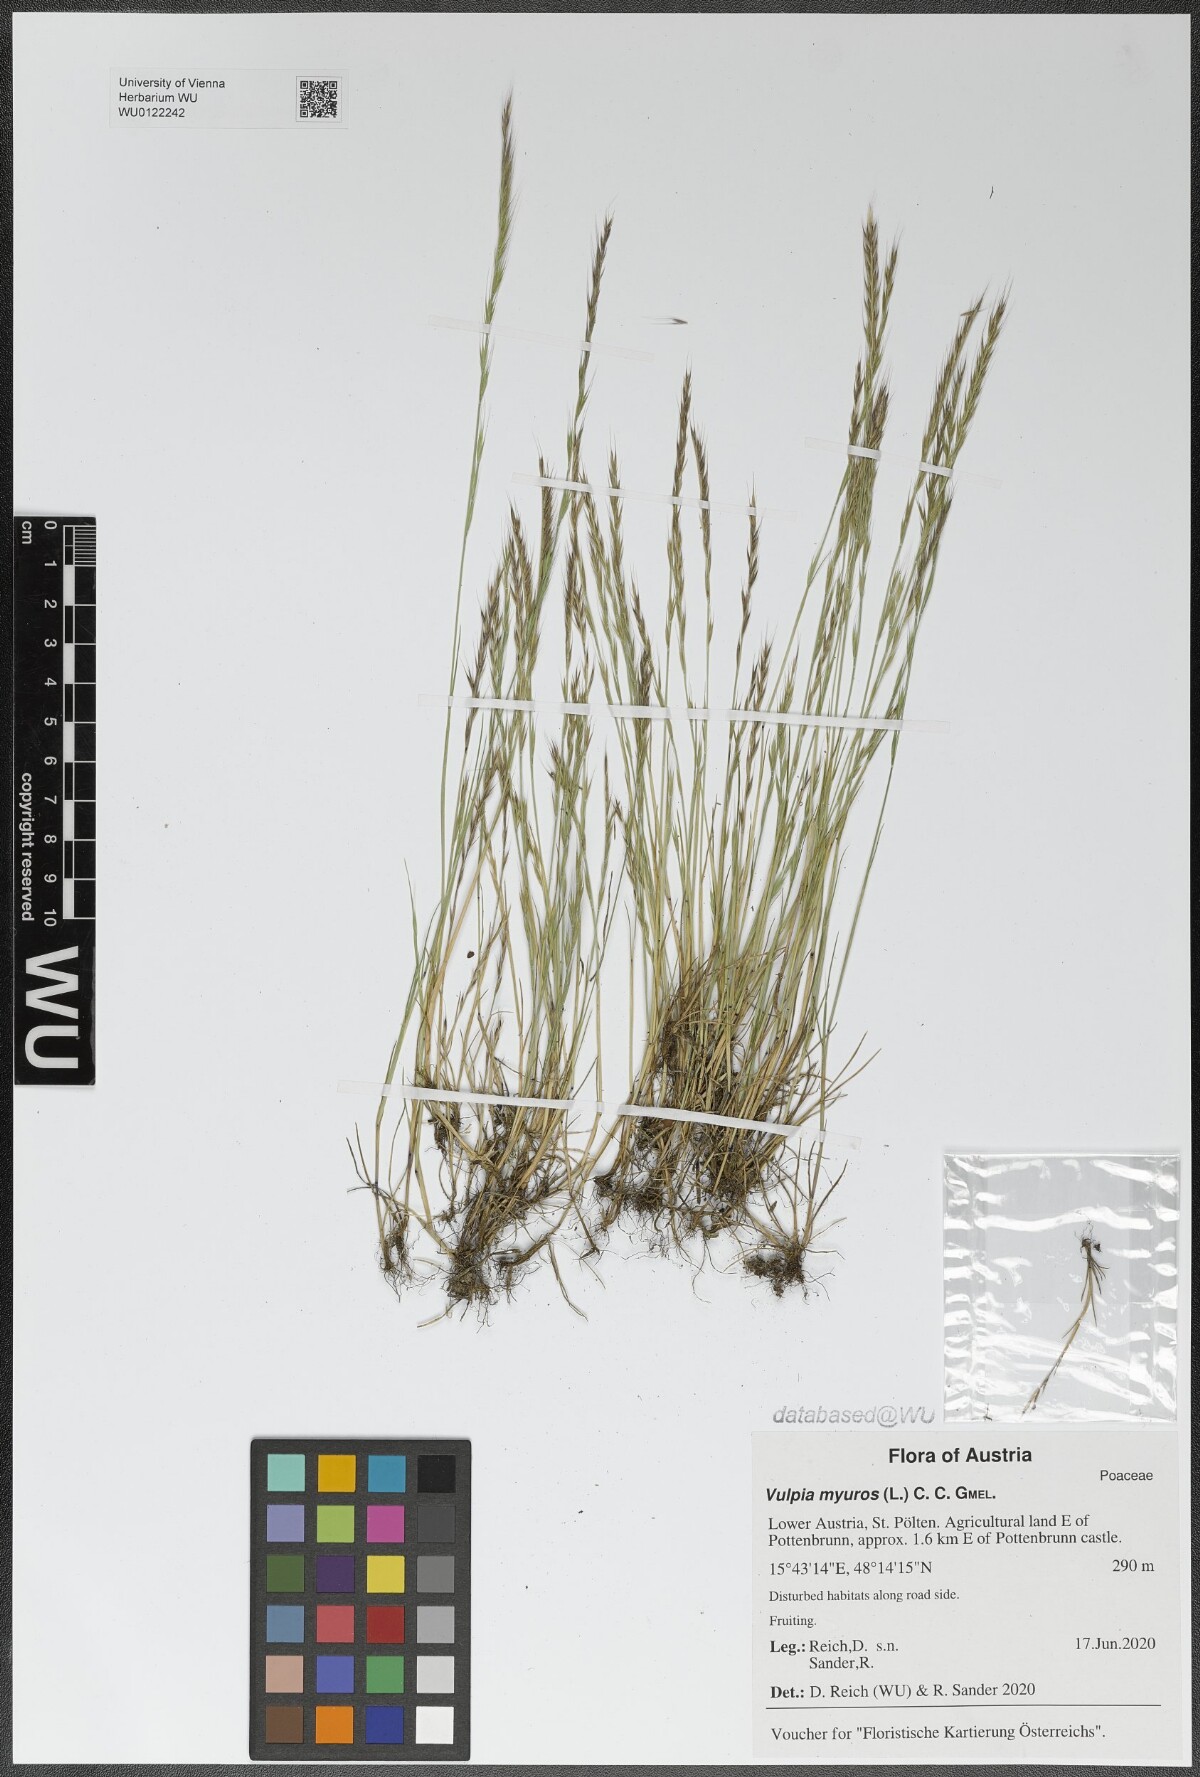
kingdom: Plantae
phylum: Tracheophyta
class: Liliopsida
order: Poales
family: Poaceae
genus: Festuca
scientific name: Festuca myuros
